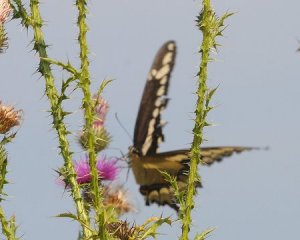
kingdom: Animalia
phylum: Arthropoda
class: Insecta
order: Lepidoptera
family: Papilionidae
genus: Papilio
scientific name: Papilio cresphontes
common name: Eastern Giant Swallowtail
